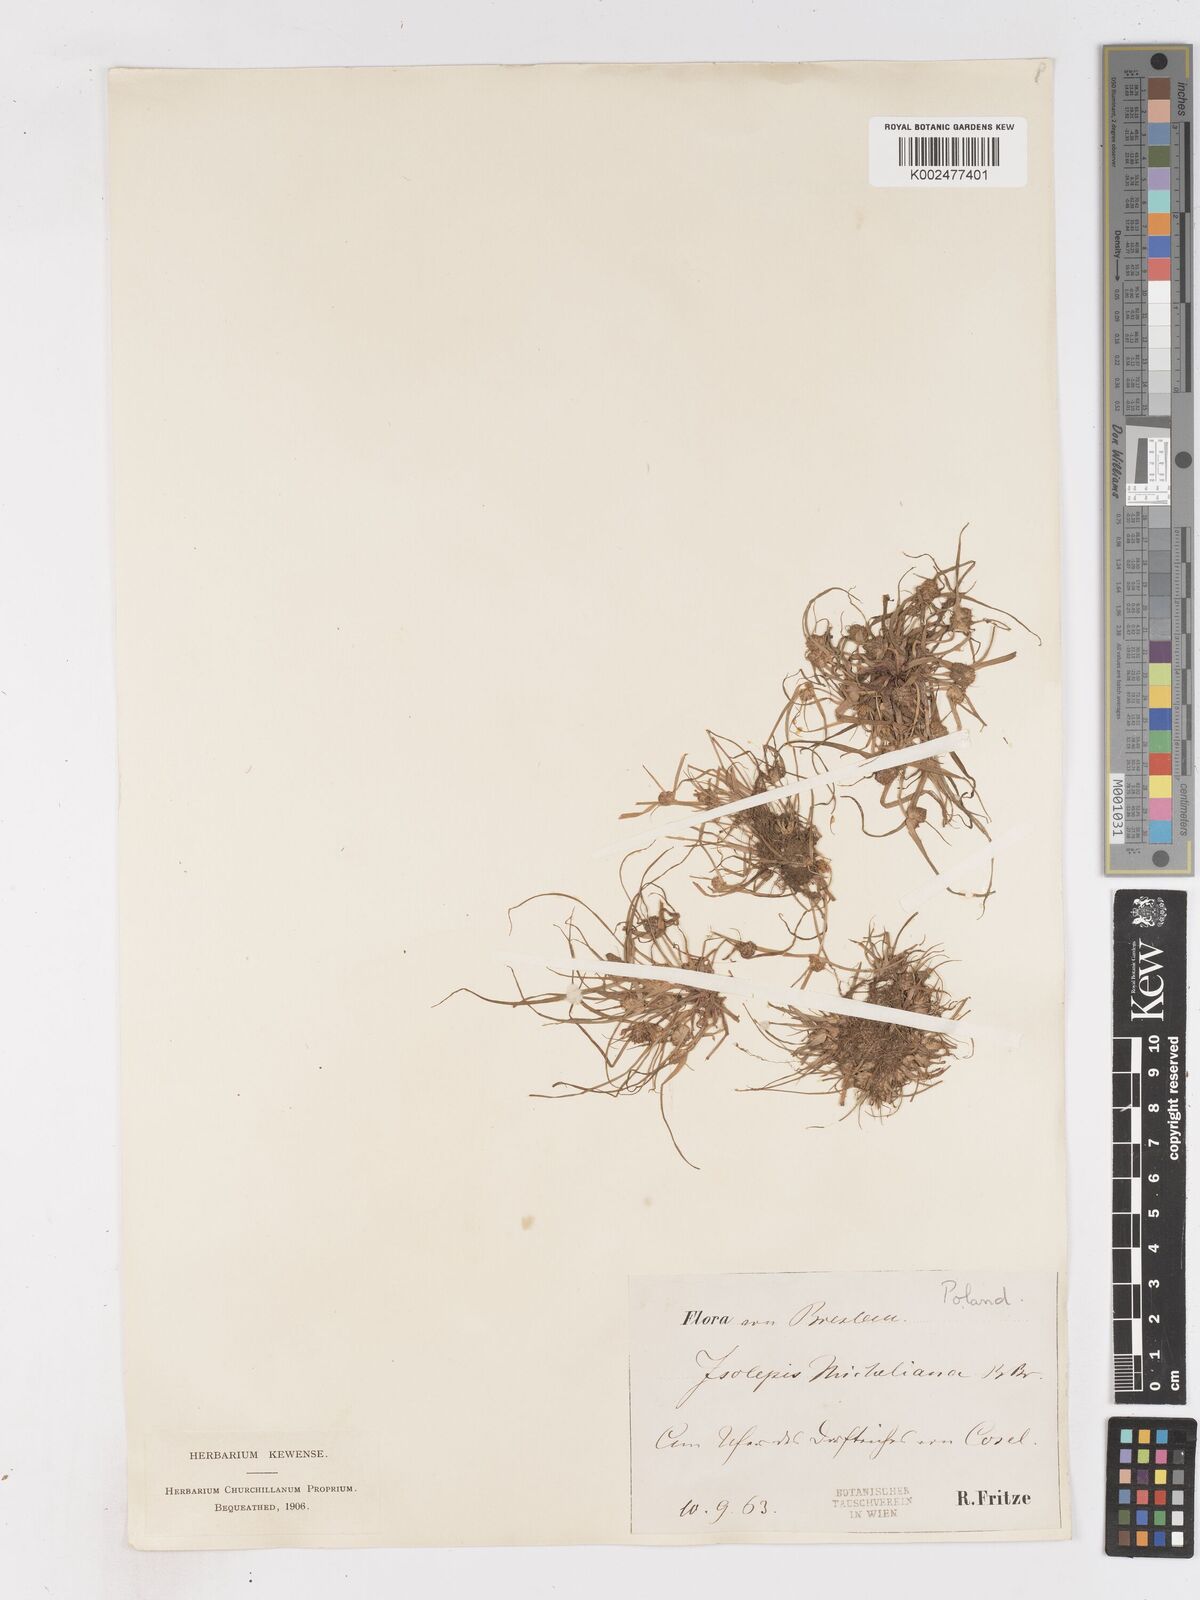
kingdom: Plantae
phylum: Tracheophyta
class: Liliopsida
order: Poales
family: Cyperaceae
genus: Cyperus
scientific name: Cyperus michelianus
